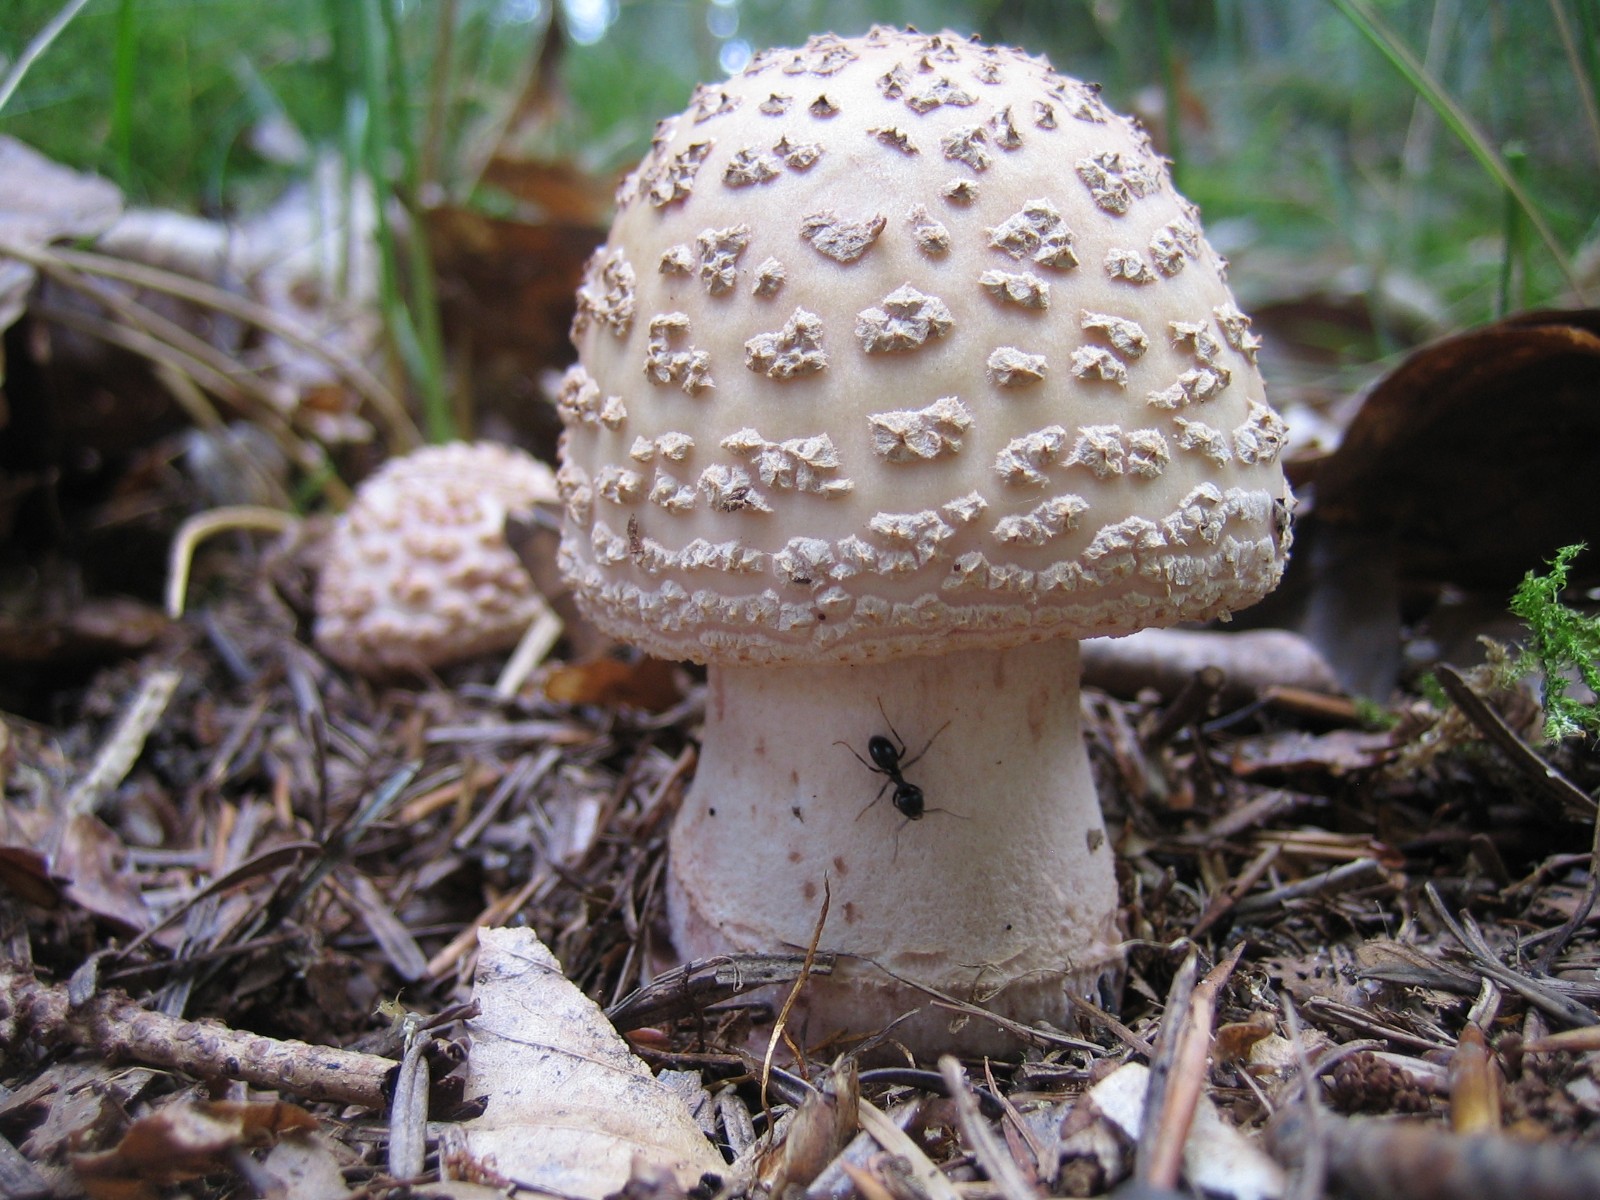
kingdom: Fungi
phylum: Basidiomycota
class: Agaricomycetes
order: Agaricales
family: Amanitaceae
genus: Amanita
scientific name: Amanita rubescens
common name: rødmende fluesvamp
